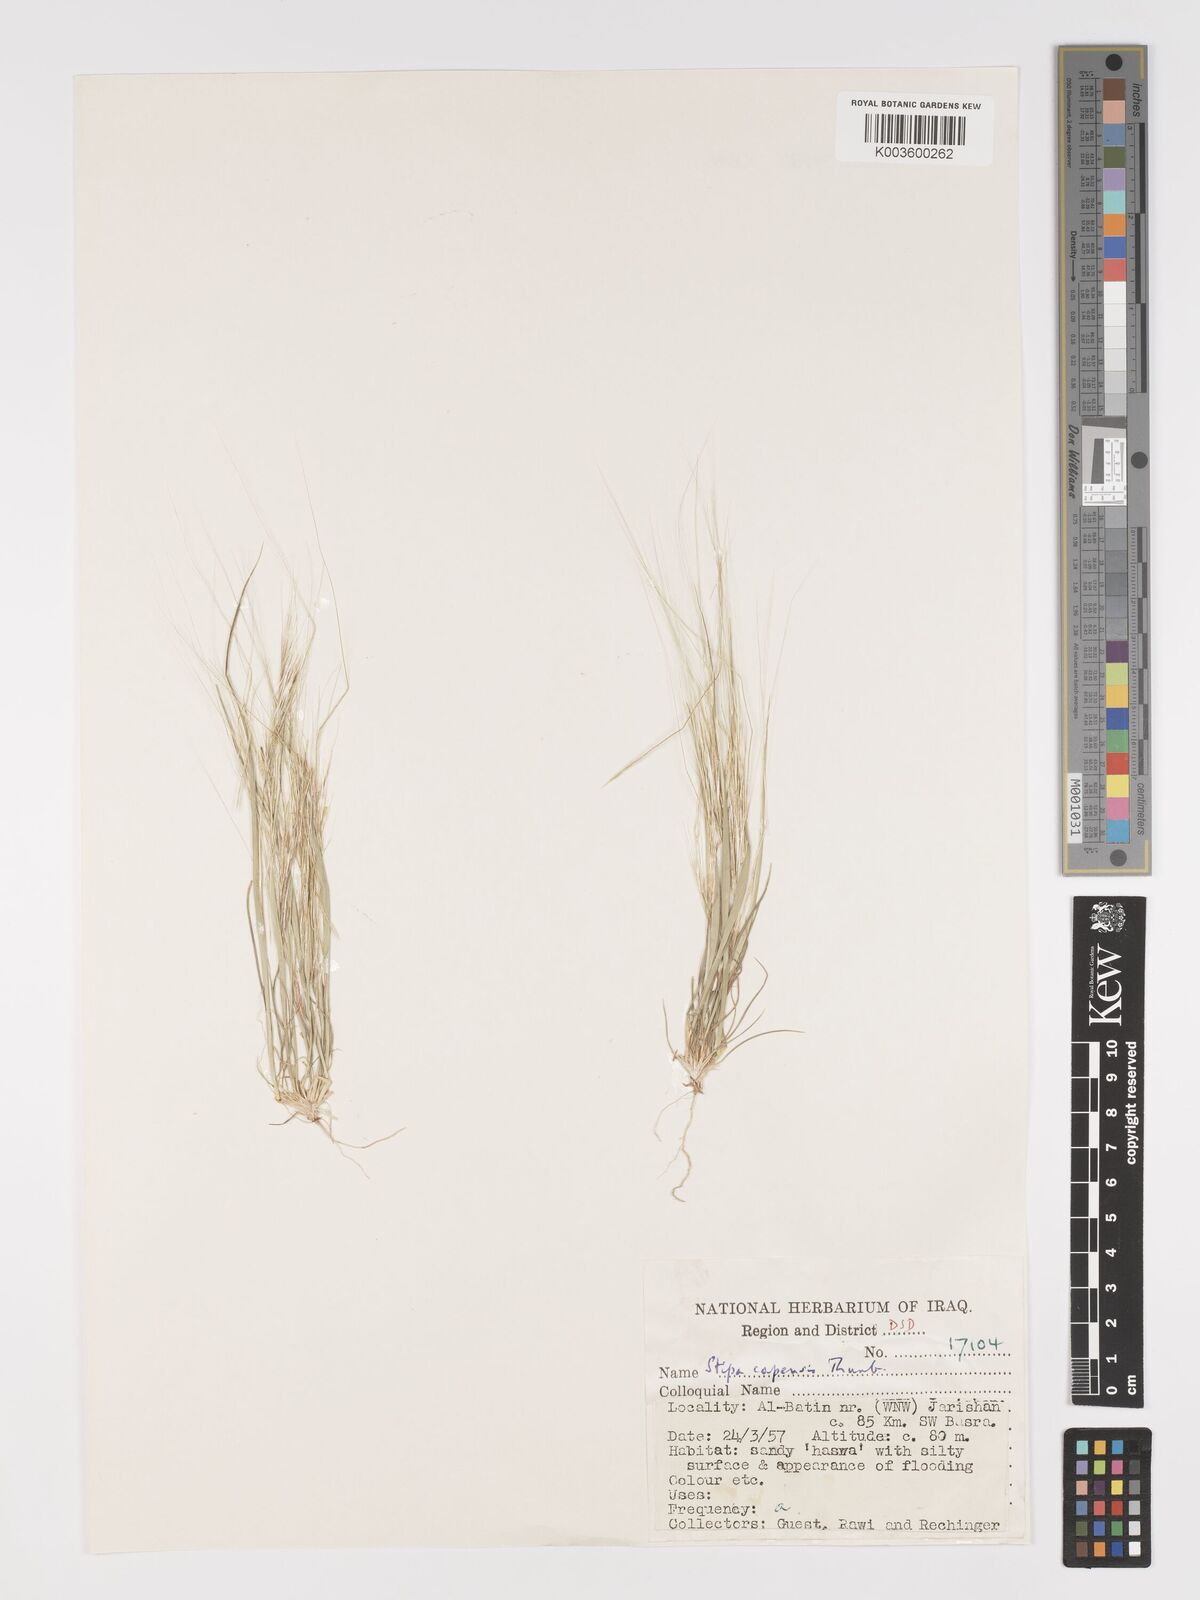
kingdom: Plantae
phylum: Tracheophyta
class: Liliopsida
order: Poales
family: Poaceae
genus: Stipellula
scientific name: Stipellula capensis
